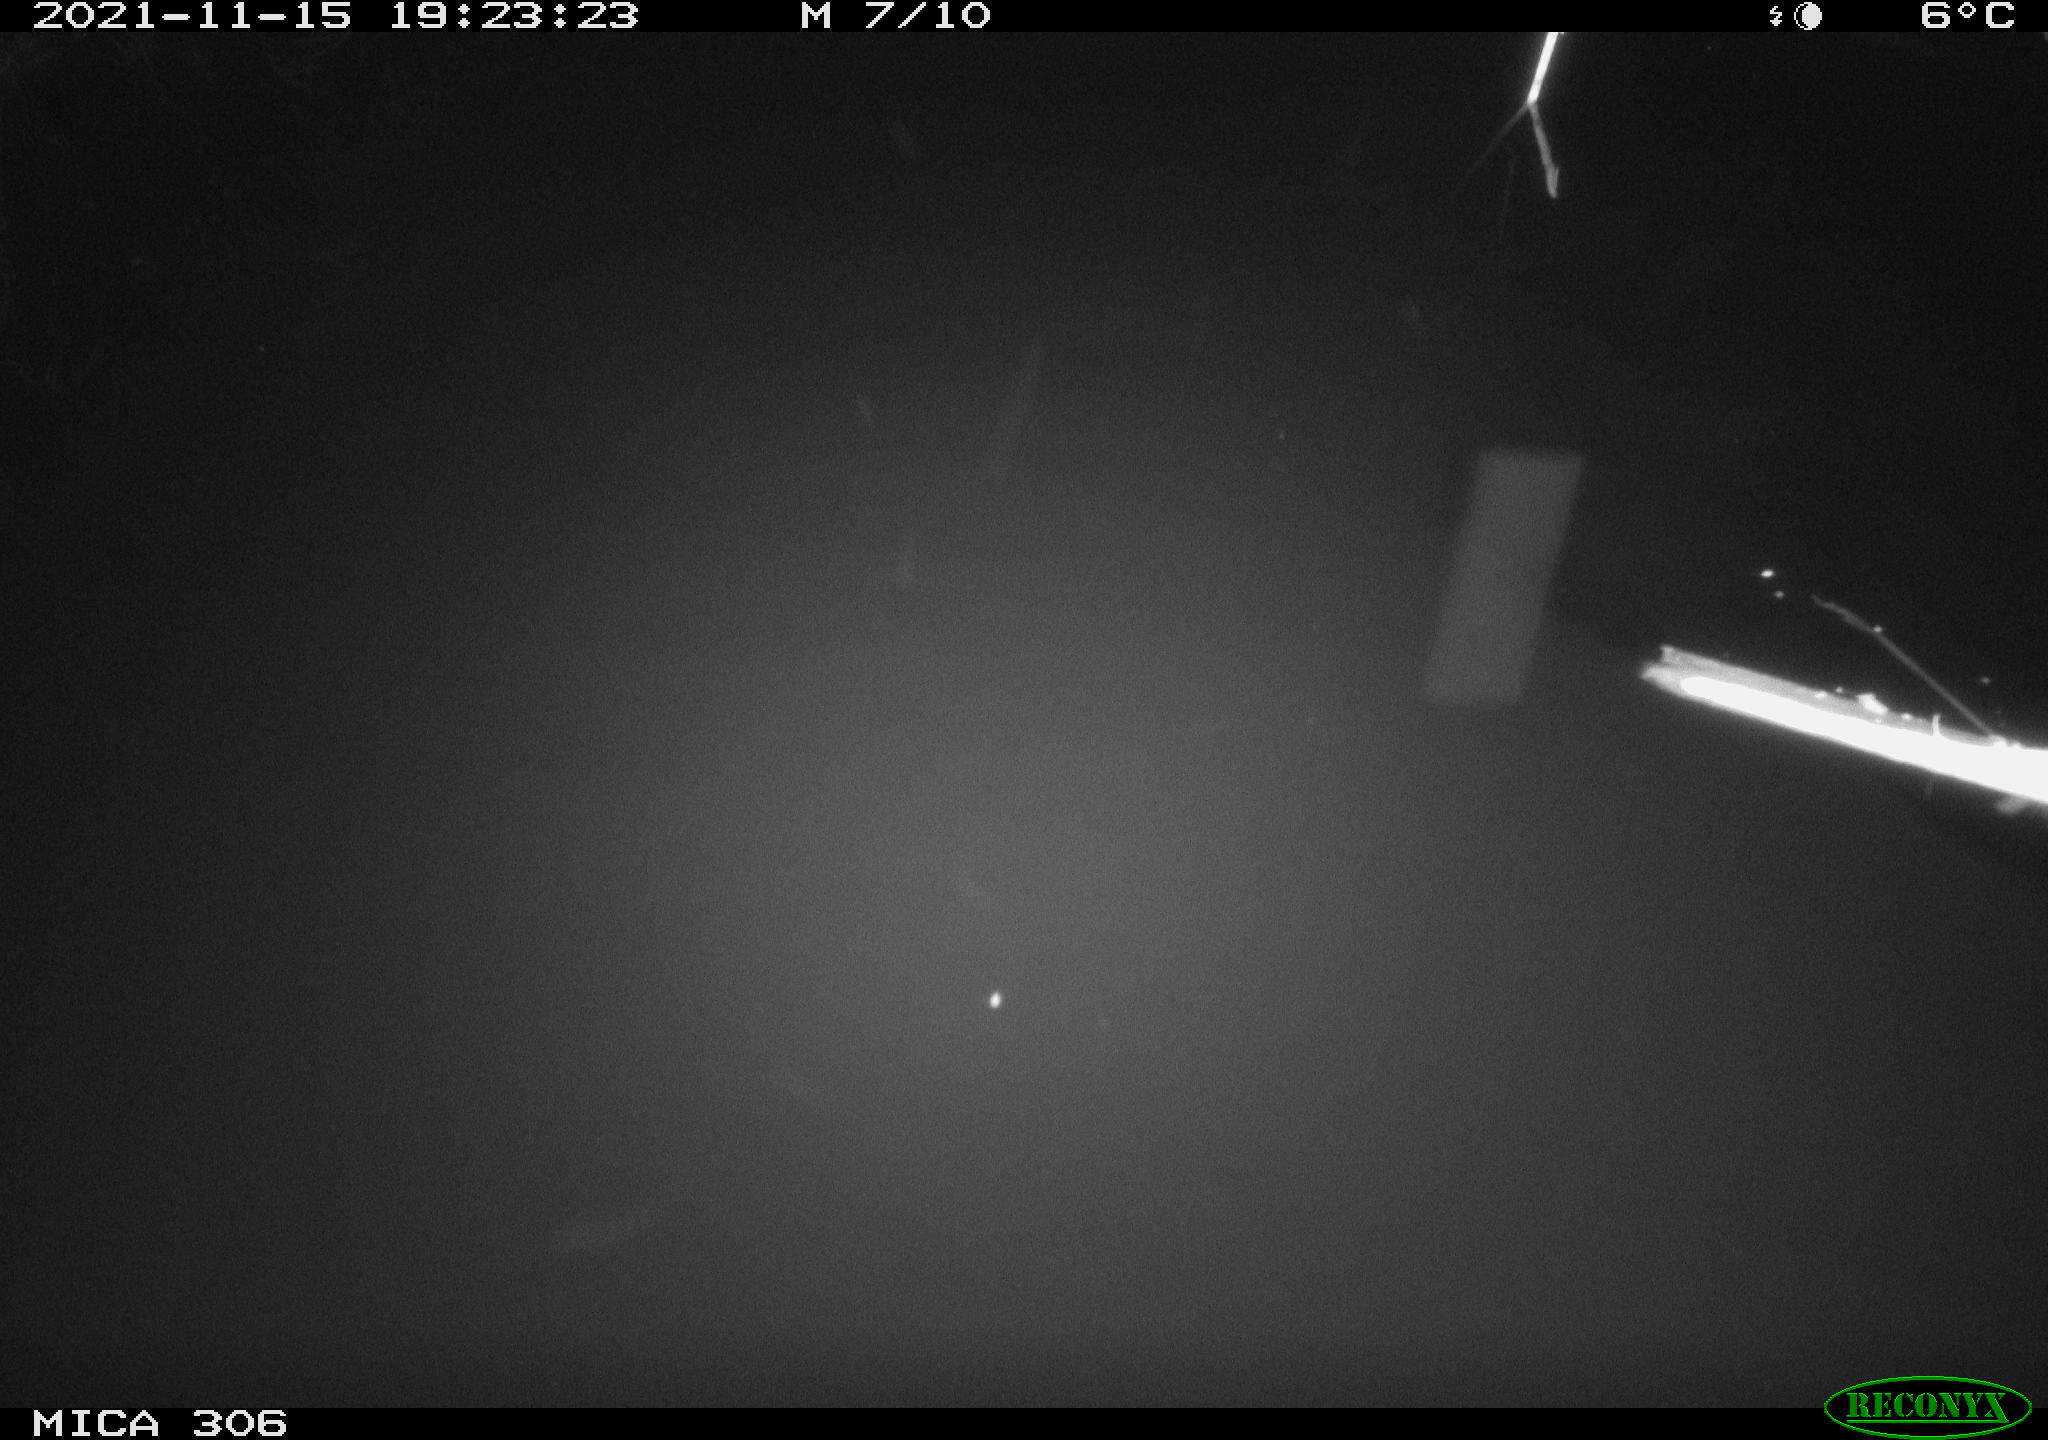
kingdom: Animalia
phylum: Chordata
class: Mammalia
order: Rodentia
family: Muridae
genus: Rattus
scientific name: Rattus norvegicus
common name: Brown rat
